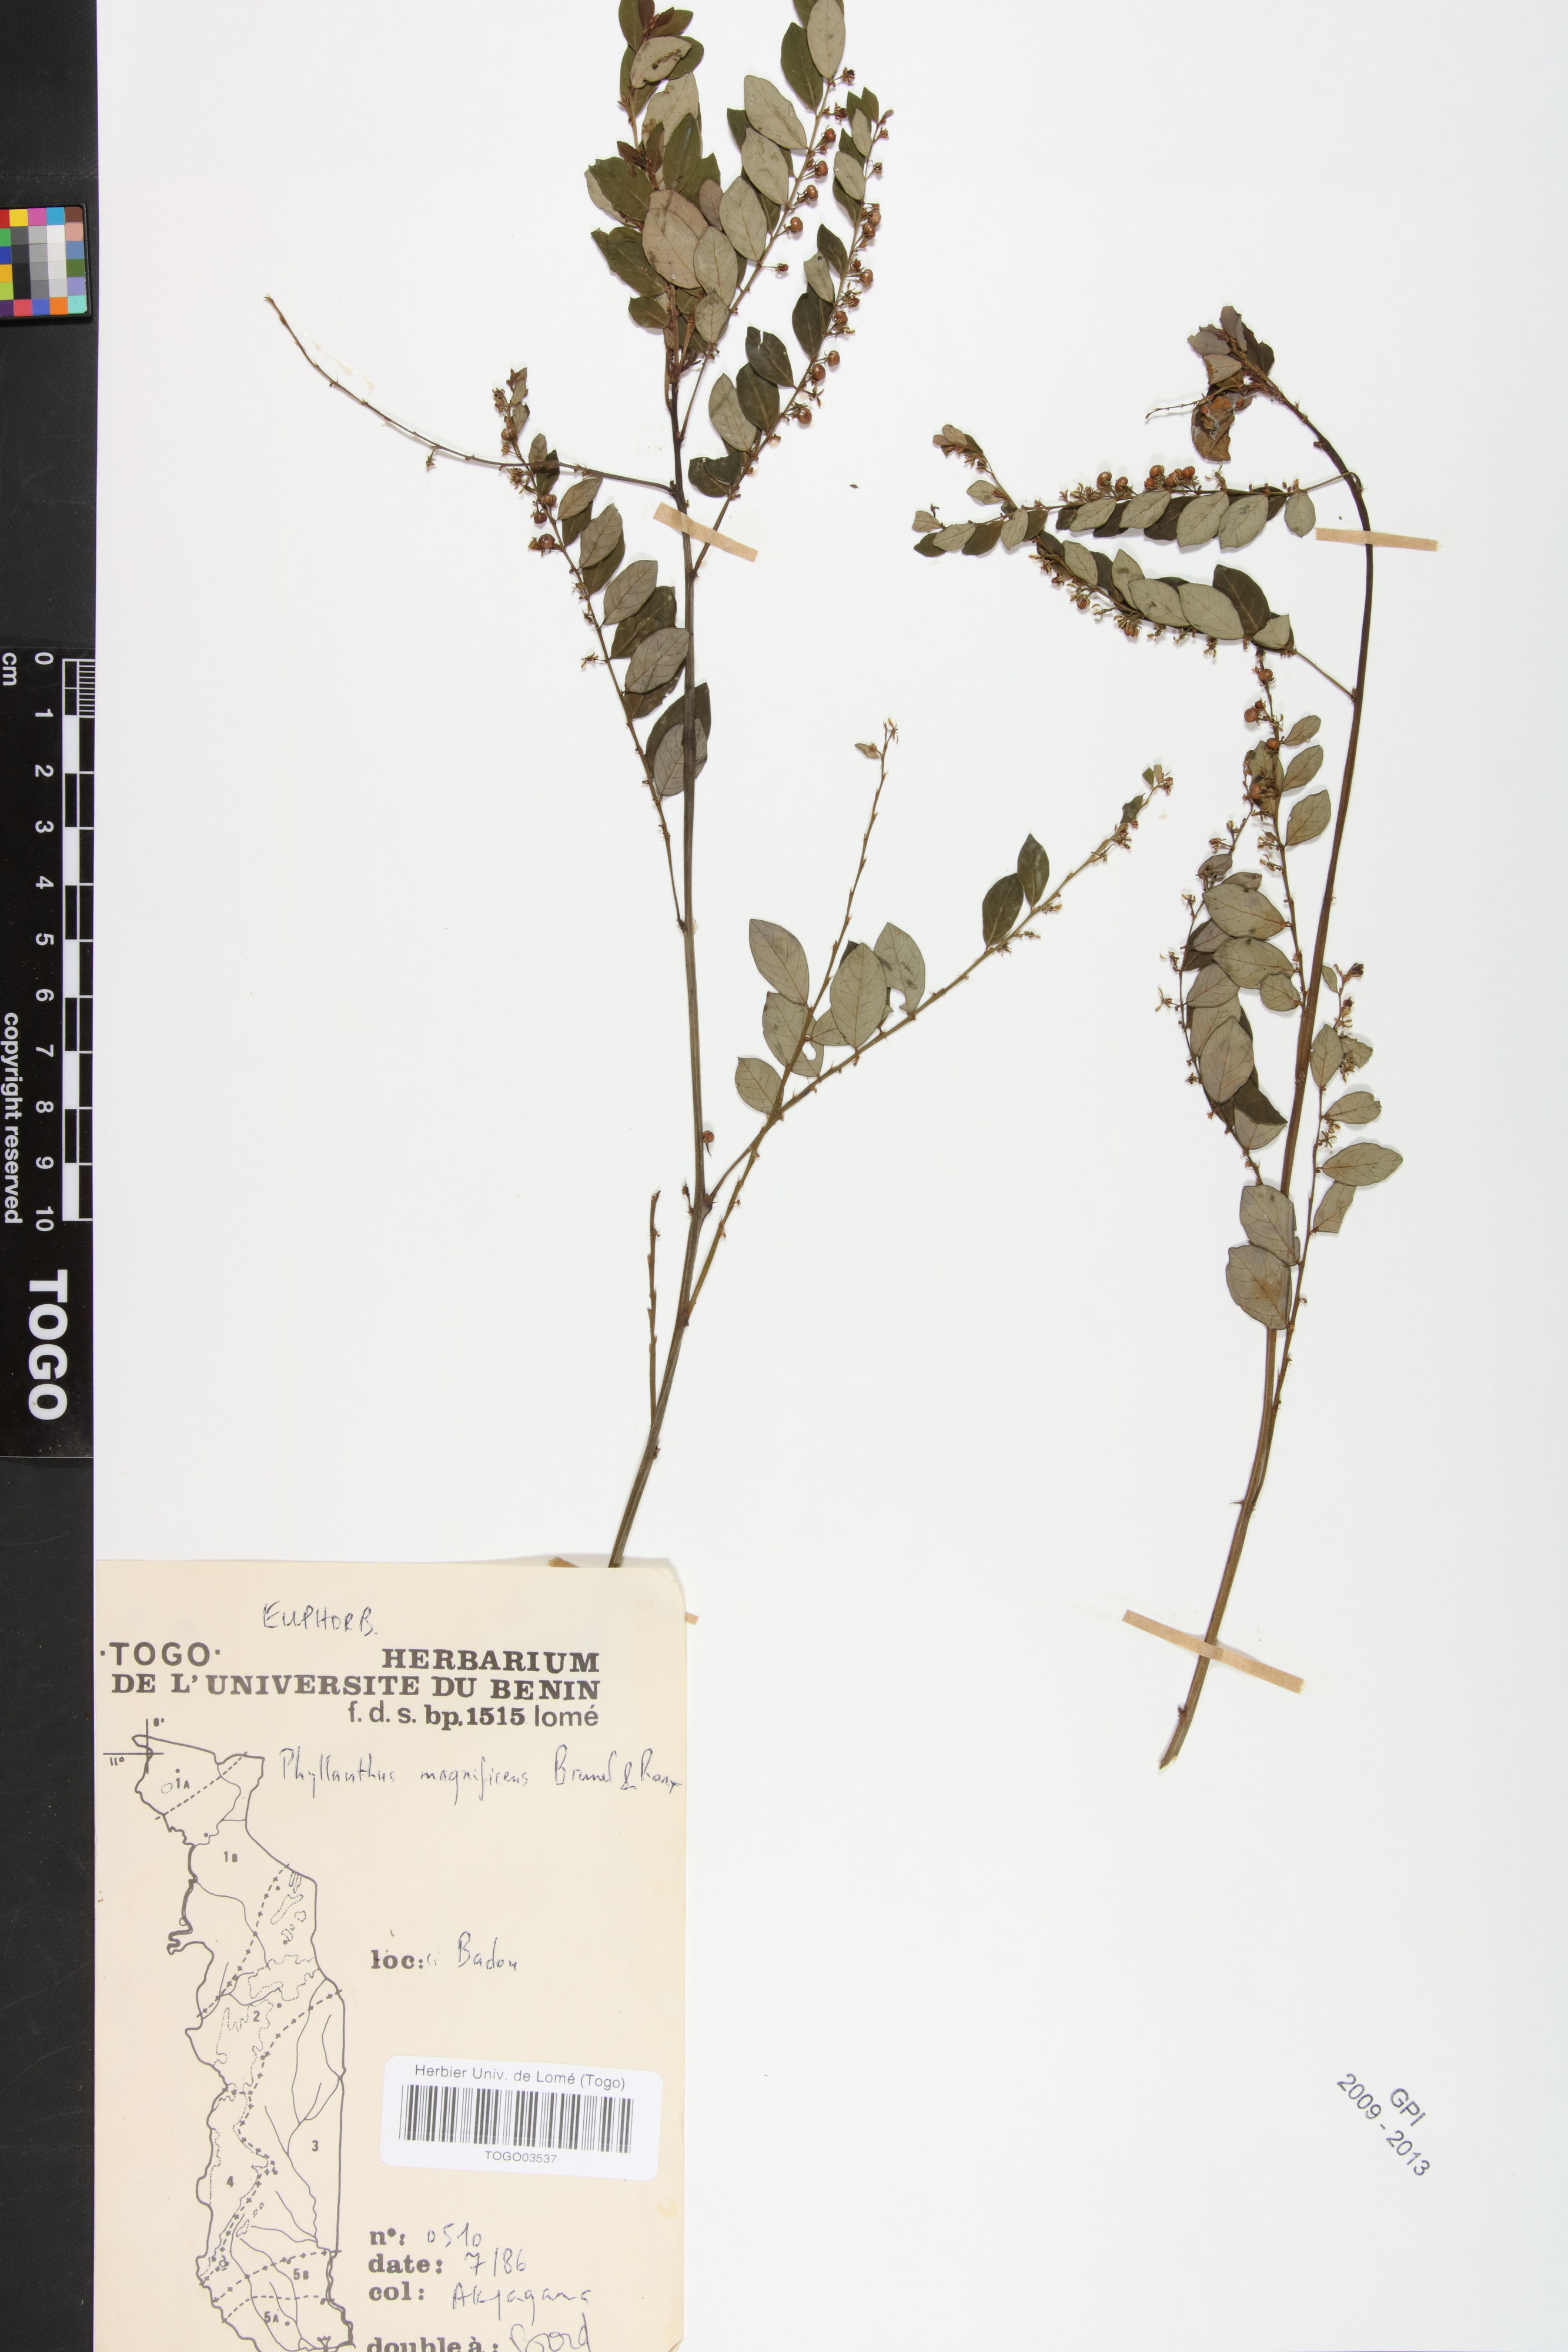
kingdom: Plantae
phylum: Tracheophyta
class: Magnoliopsida
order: Malpighiales
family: Phyllanthaceae
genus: Phyllanthus
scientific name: Phyllanthus magnificens
